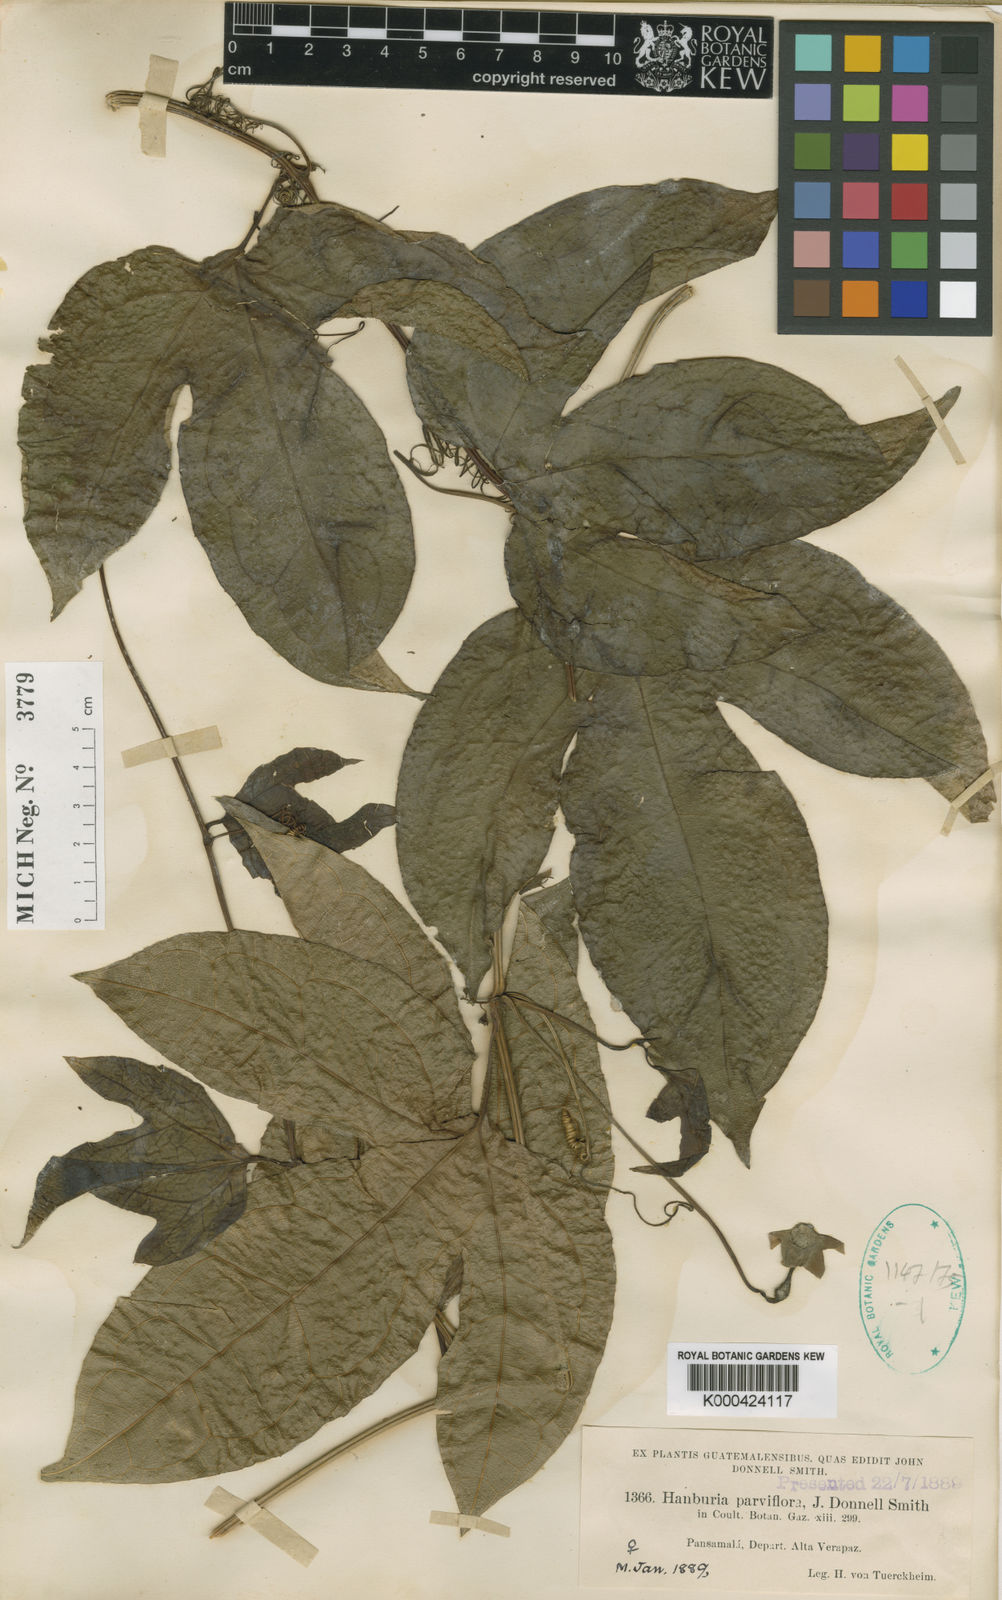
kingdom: Plantae
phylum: Tracheophyta
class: Magnoliopsida
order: Cucurbitales
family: Cucurbitaceae
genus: Hanburia
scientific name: Hanburia parviflora
